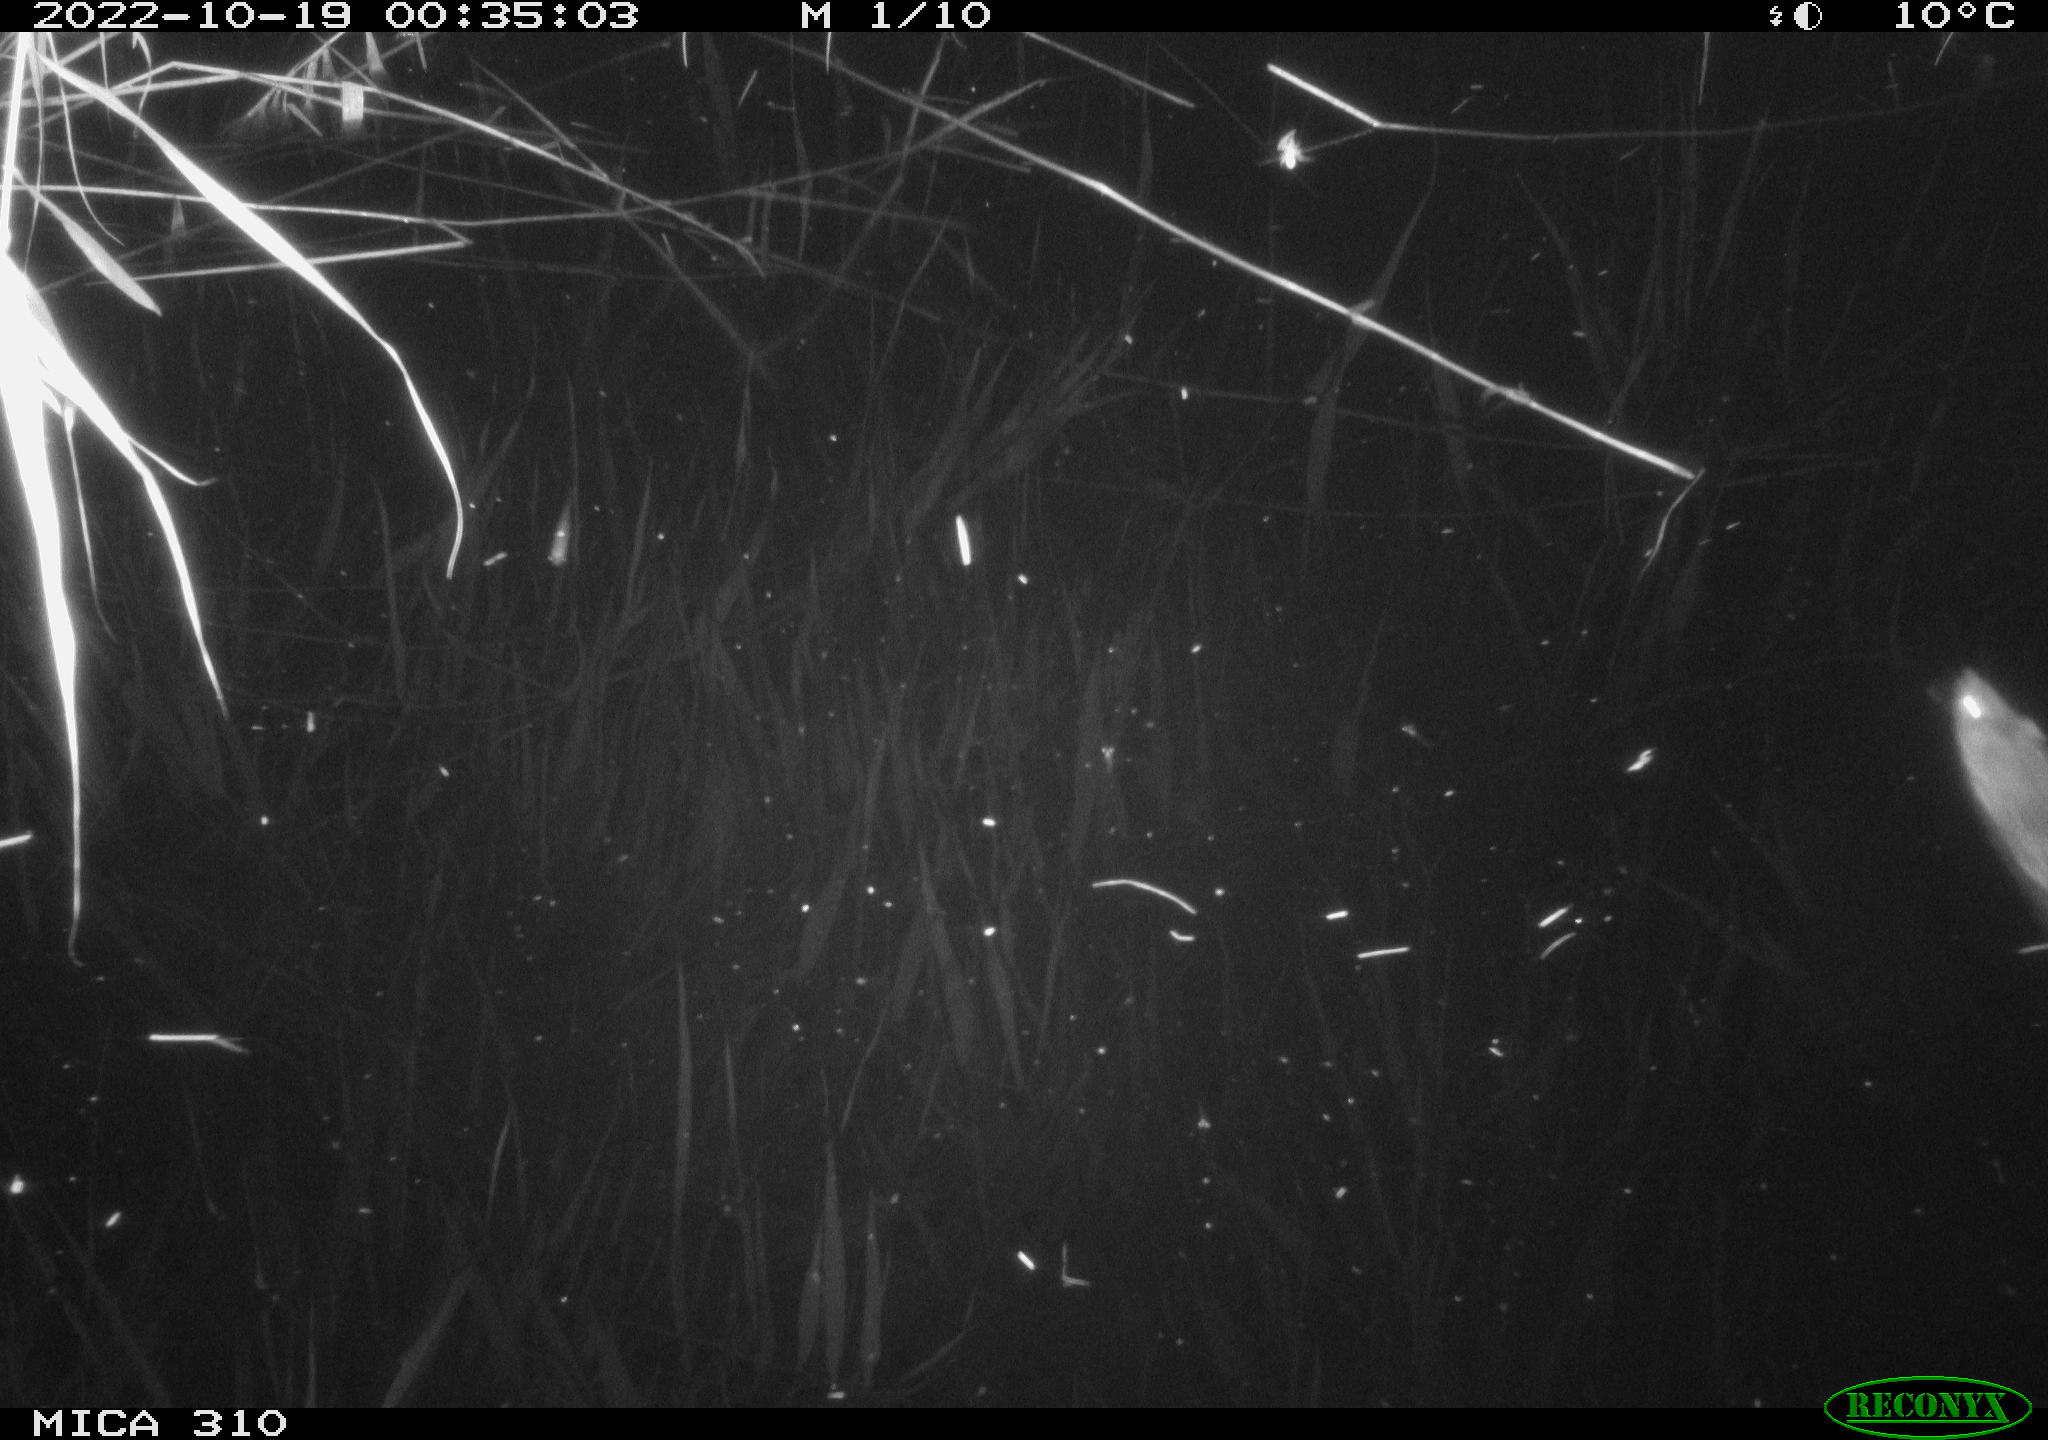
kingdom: Animalia
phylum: Chordata
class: Mammalia
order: Rodentia
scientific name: Rodentia
